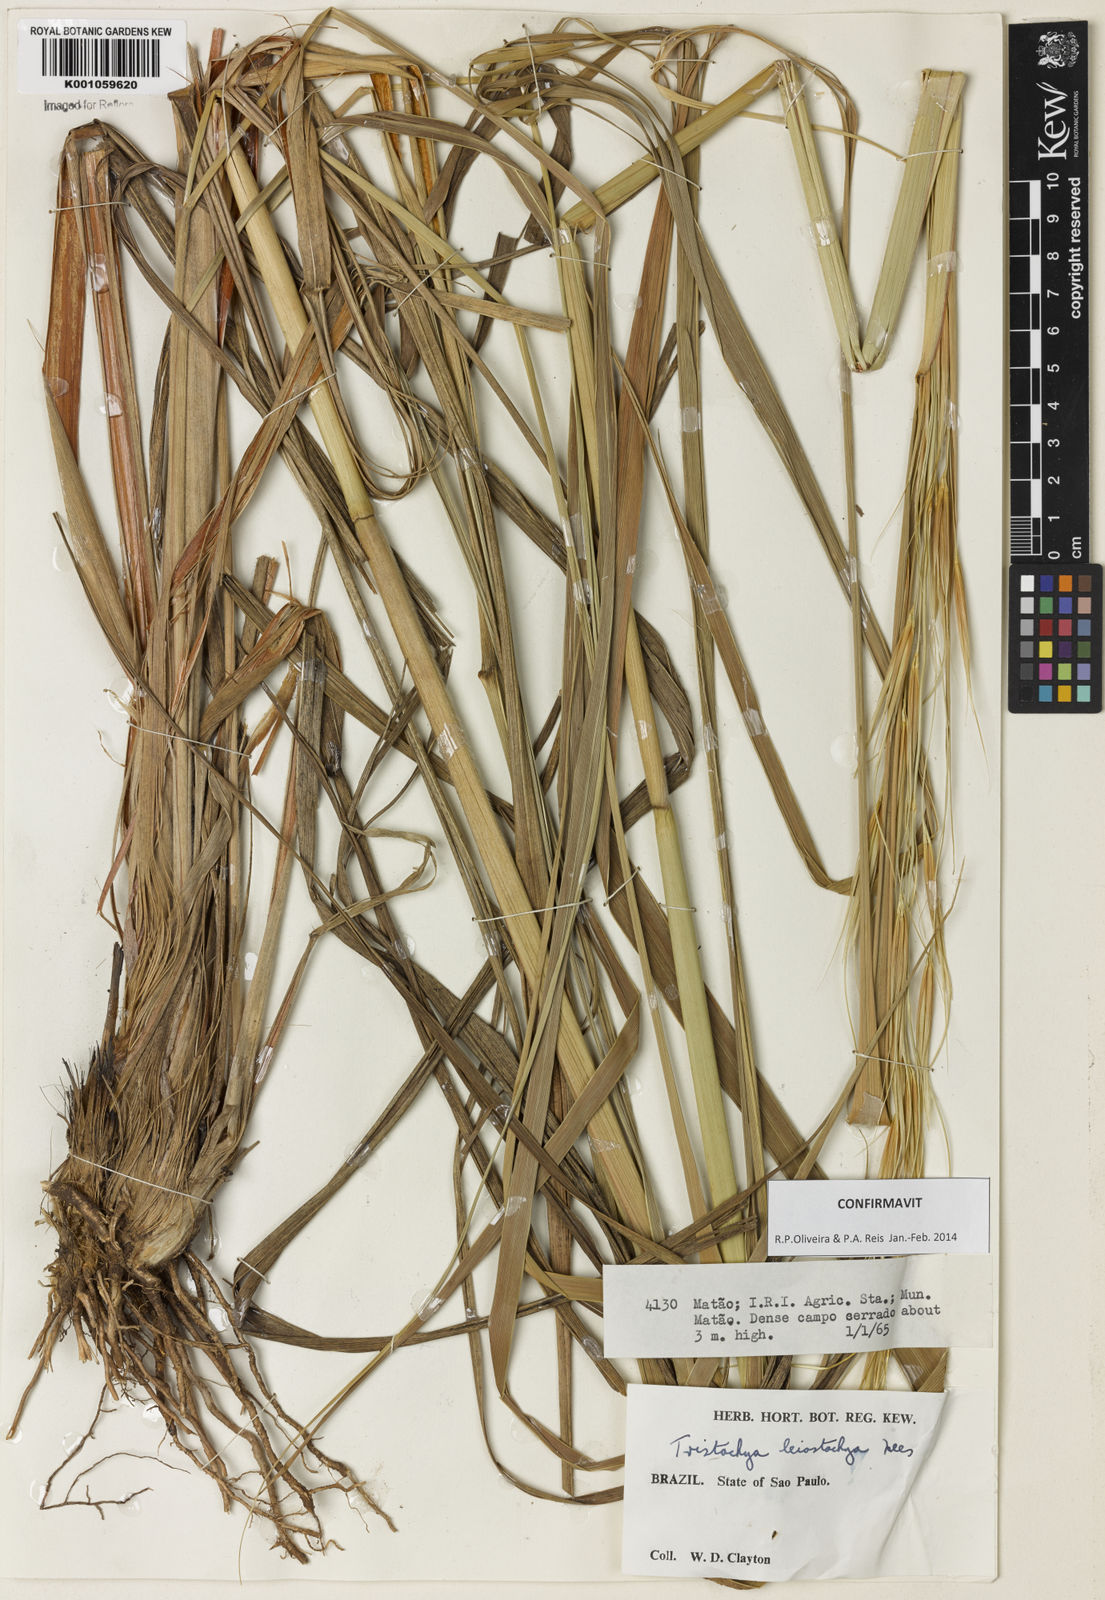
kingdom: Plantae
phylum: Tracheophyta
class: Liliopsida
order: Poales
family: Poaceae
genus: Tristachya
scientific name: Tristachya leiostachya
